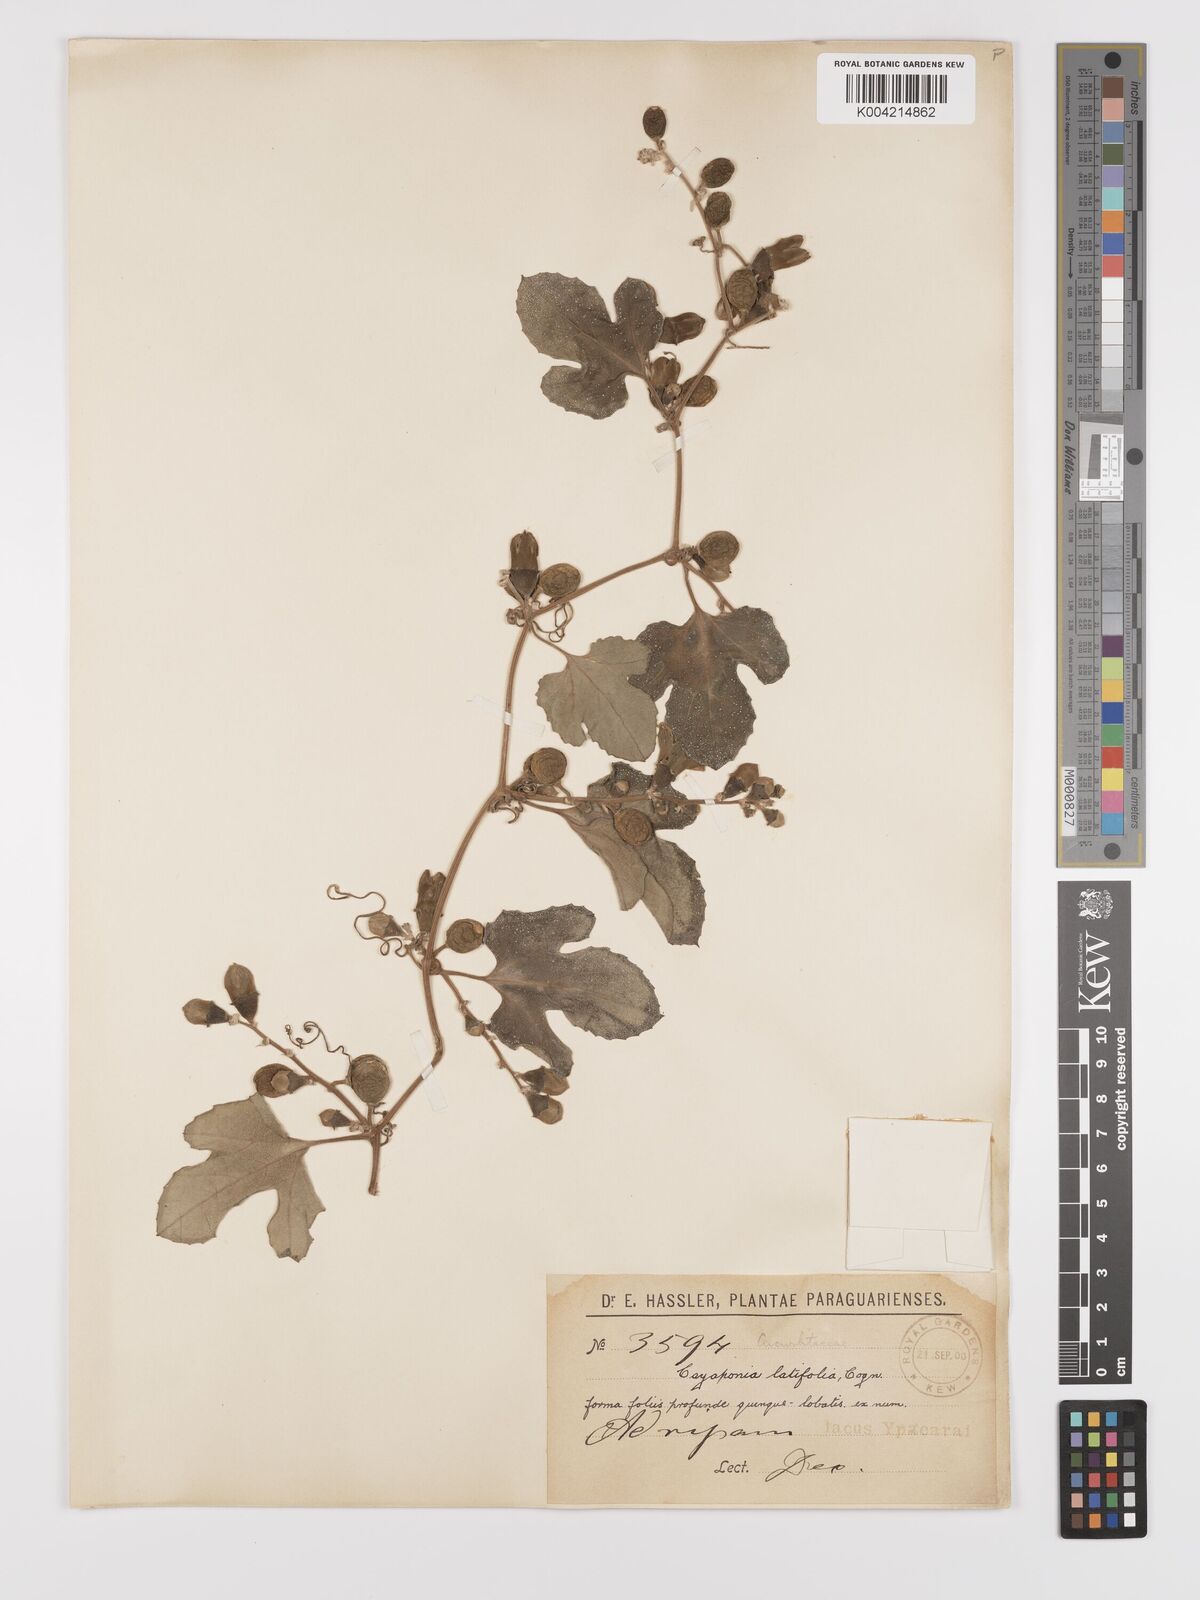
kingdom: Plantae
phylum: Tracheophyta
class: Magnoliopsida
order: Cucurbitales
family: Cucurbitaceae
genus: Cayaponia
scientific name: Cayaponia citrullifolia
